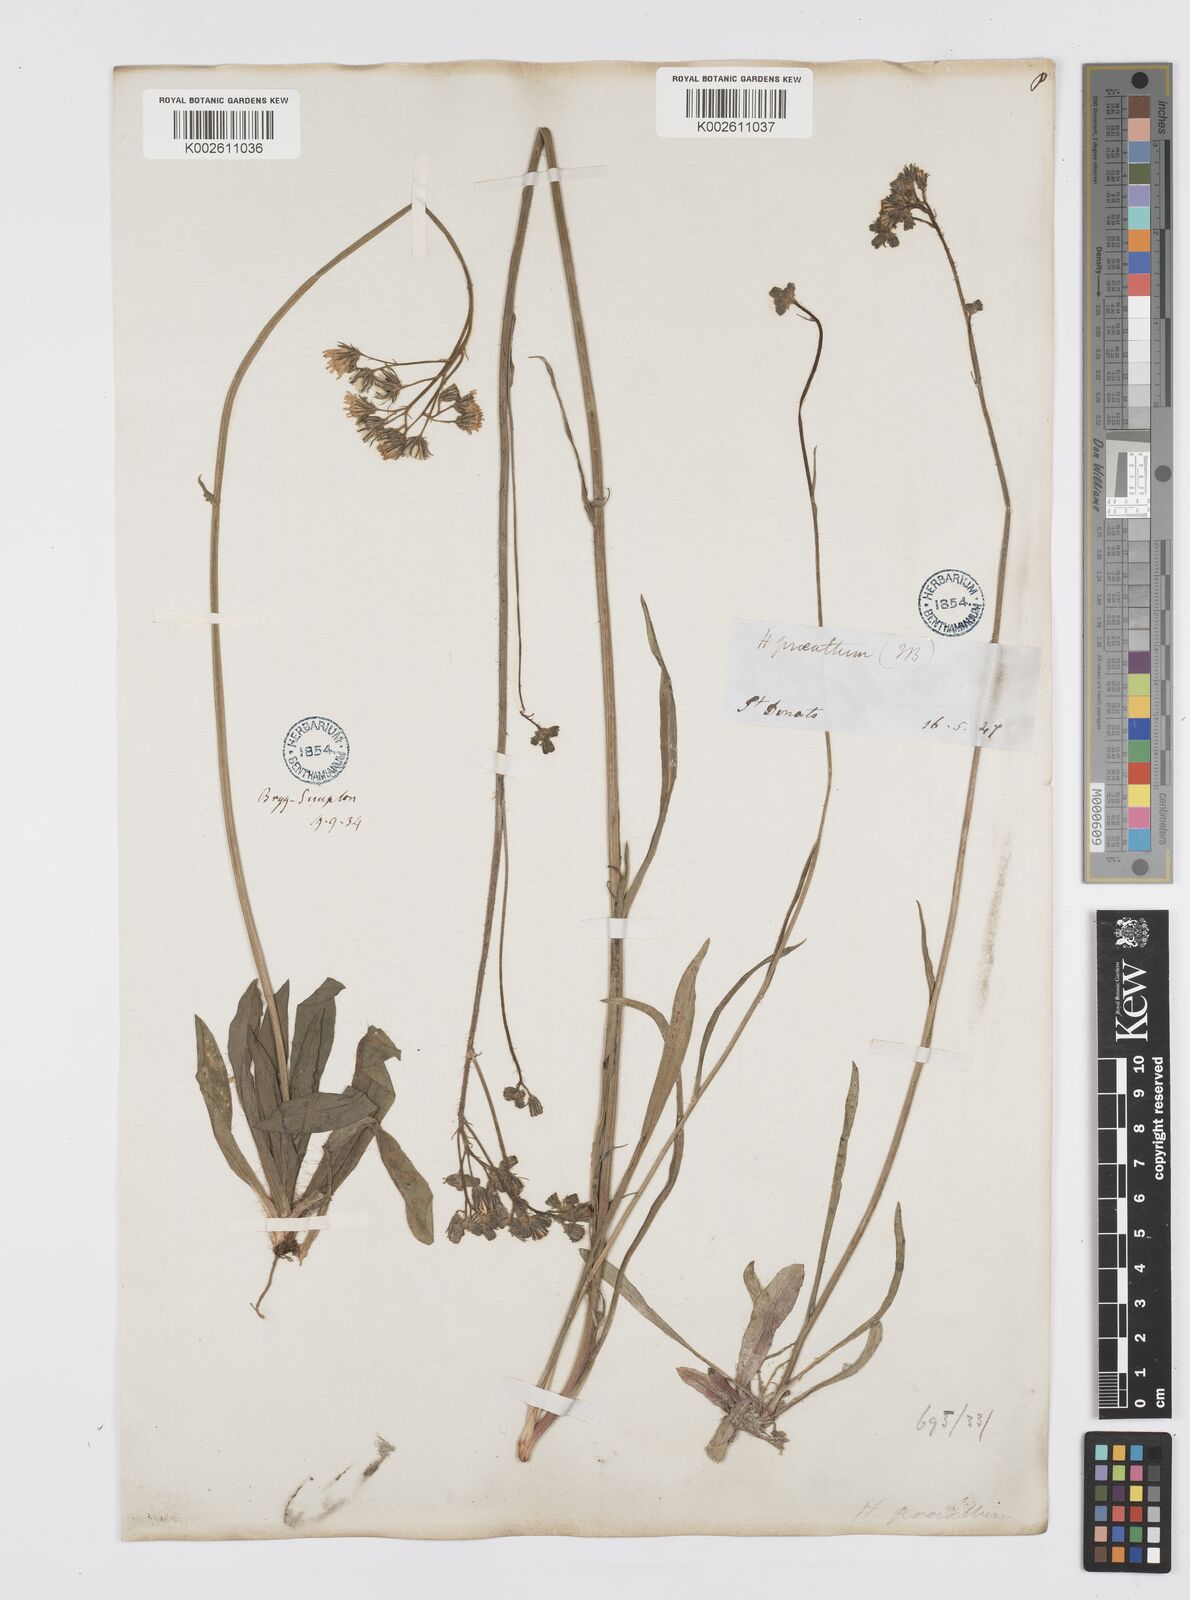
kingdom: Plantae
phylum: Tracheophyta
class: Magnoliopsida
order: Asterales
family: Asteraceae
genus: Pilosella
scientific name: Pilosella piloselloides
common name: Glaucous king-devil
